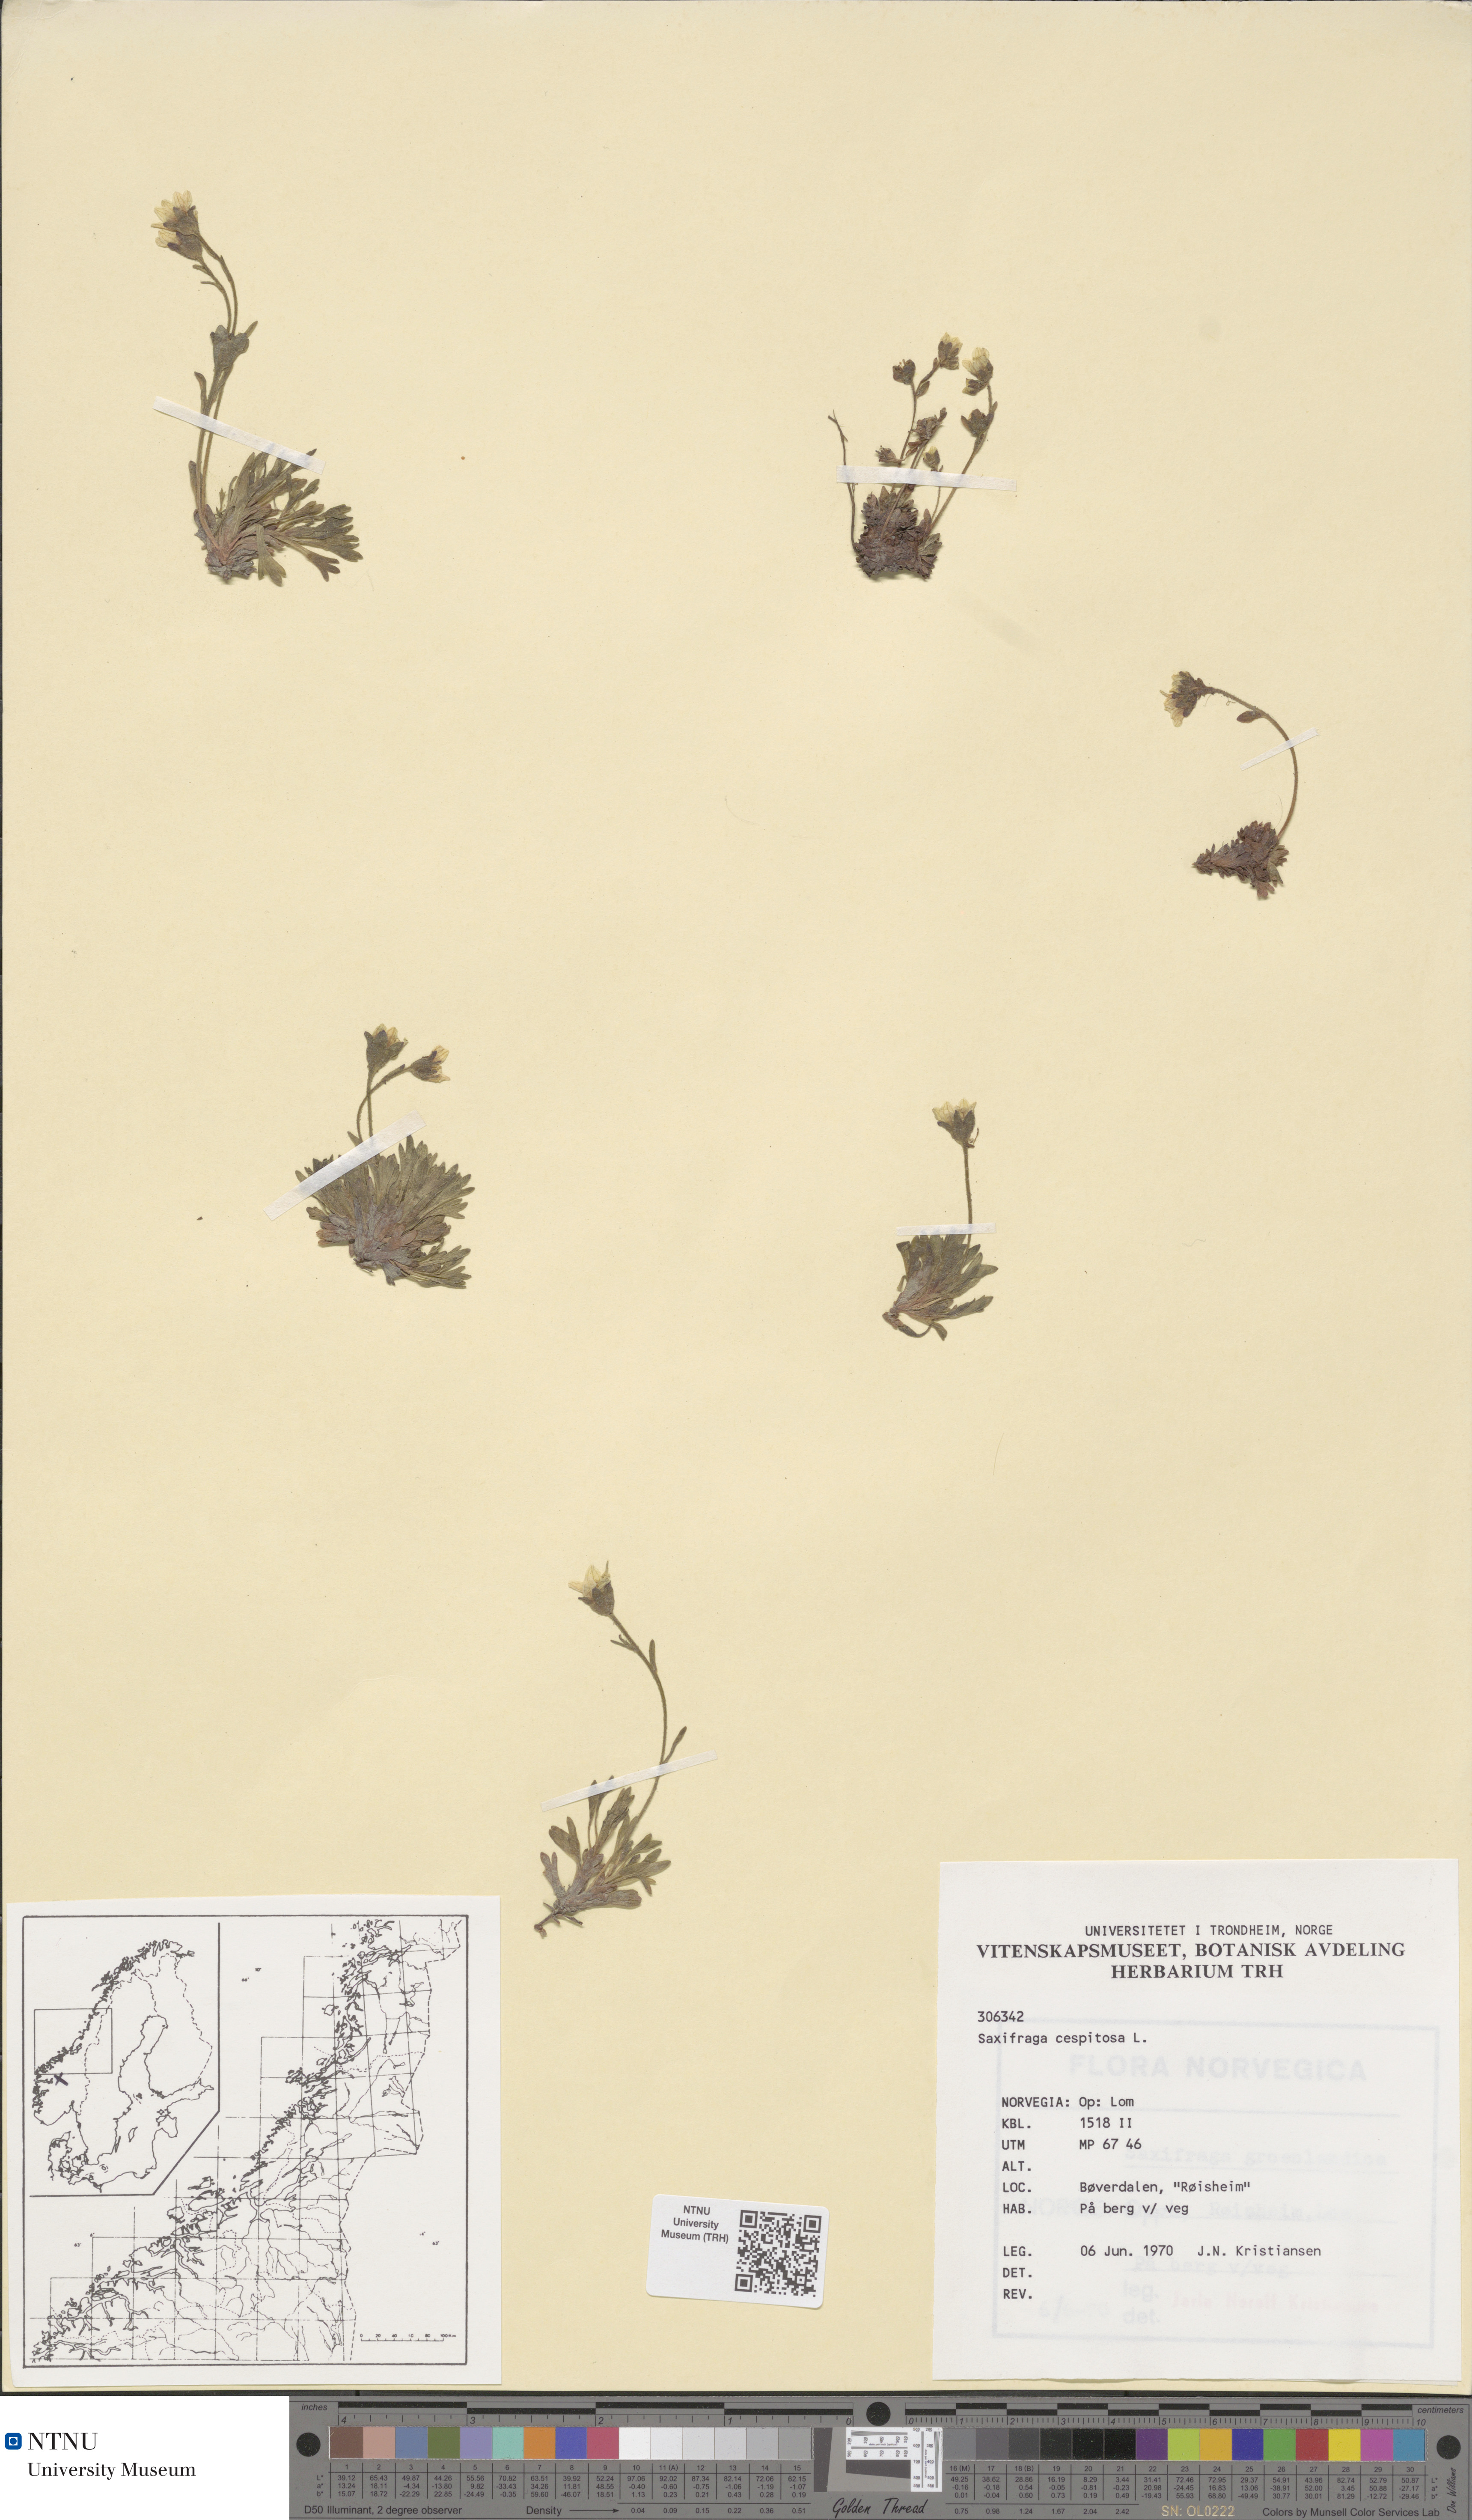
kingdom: Plantae
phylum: Tracheophyta
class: Magnoliopsida
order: Saxifragales
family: Saxifragaceae
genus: Saxifraga
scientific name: Saxifraga cespitosa
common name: Tufted saxifrage
